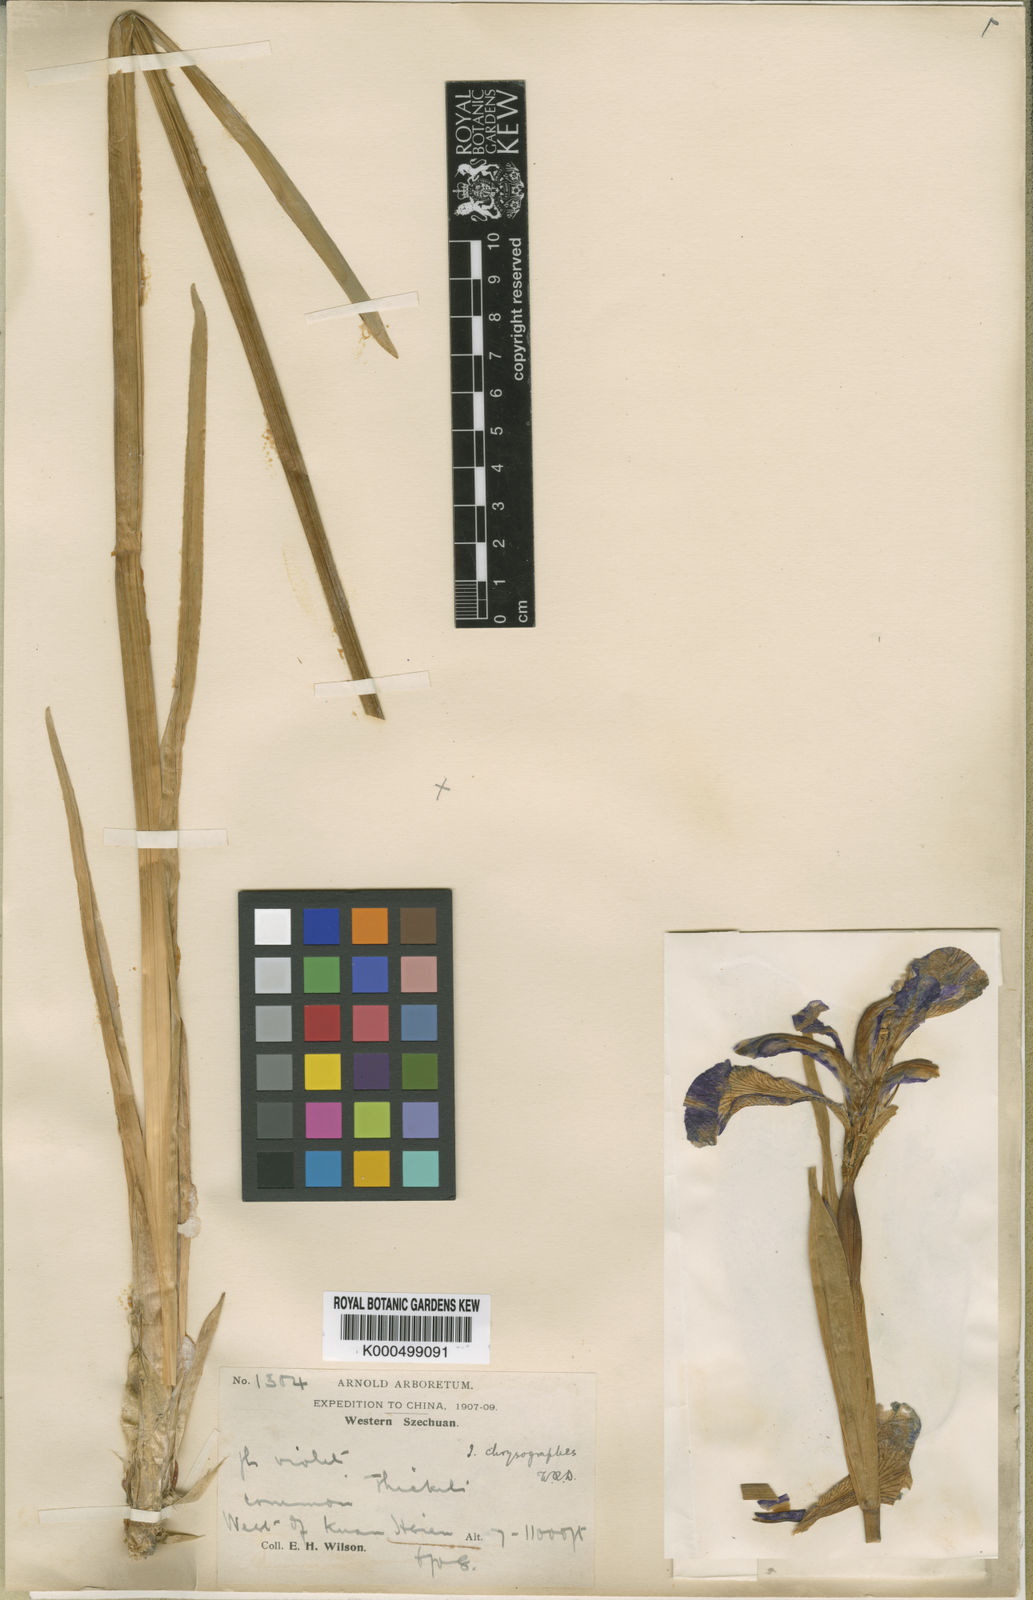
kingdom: Plantae
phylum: Tracheophyta
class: Liliopsida
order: Asparagales
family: Iridaceae
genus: Iris
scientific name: Iris chrysographes
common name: Gold-vein iris
